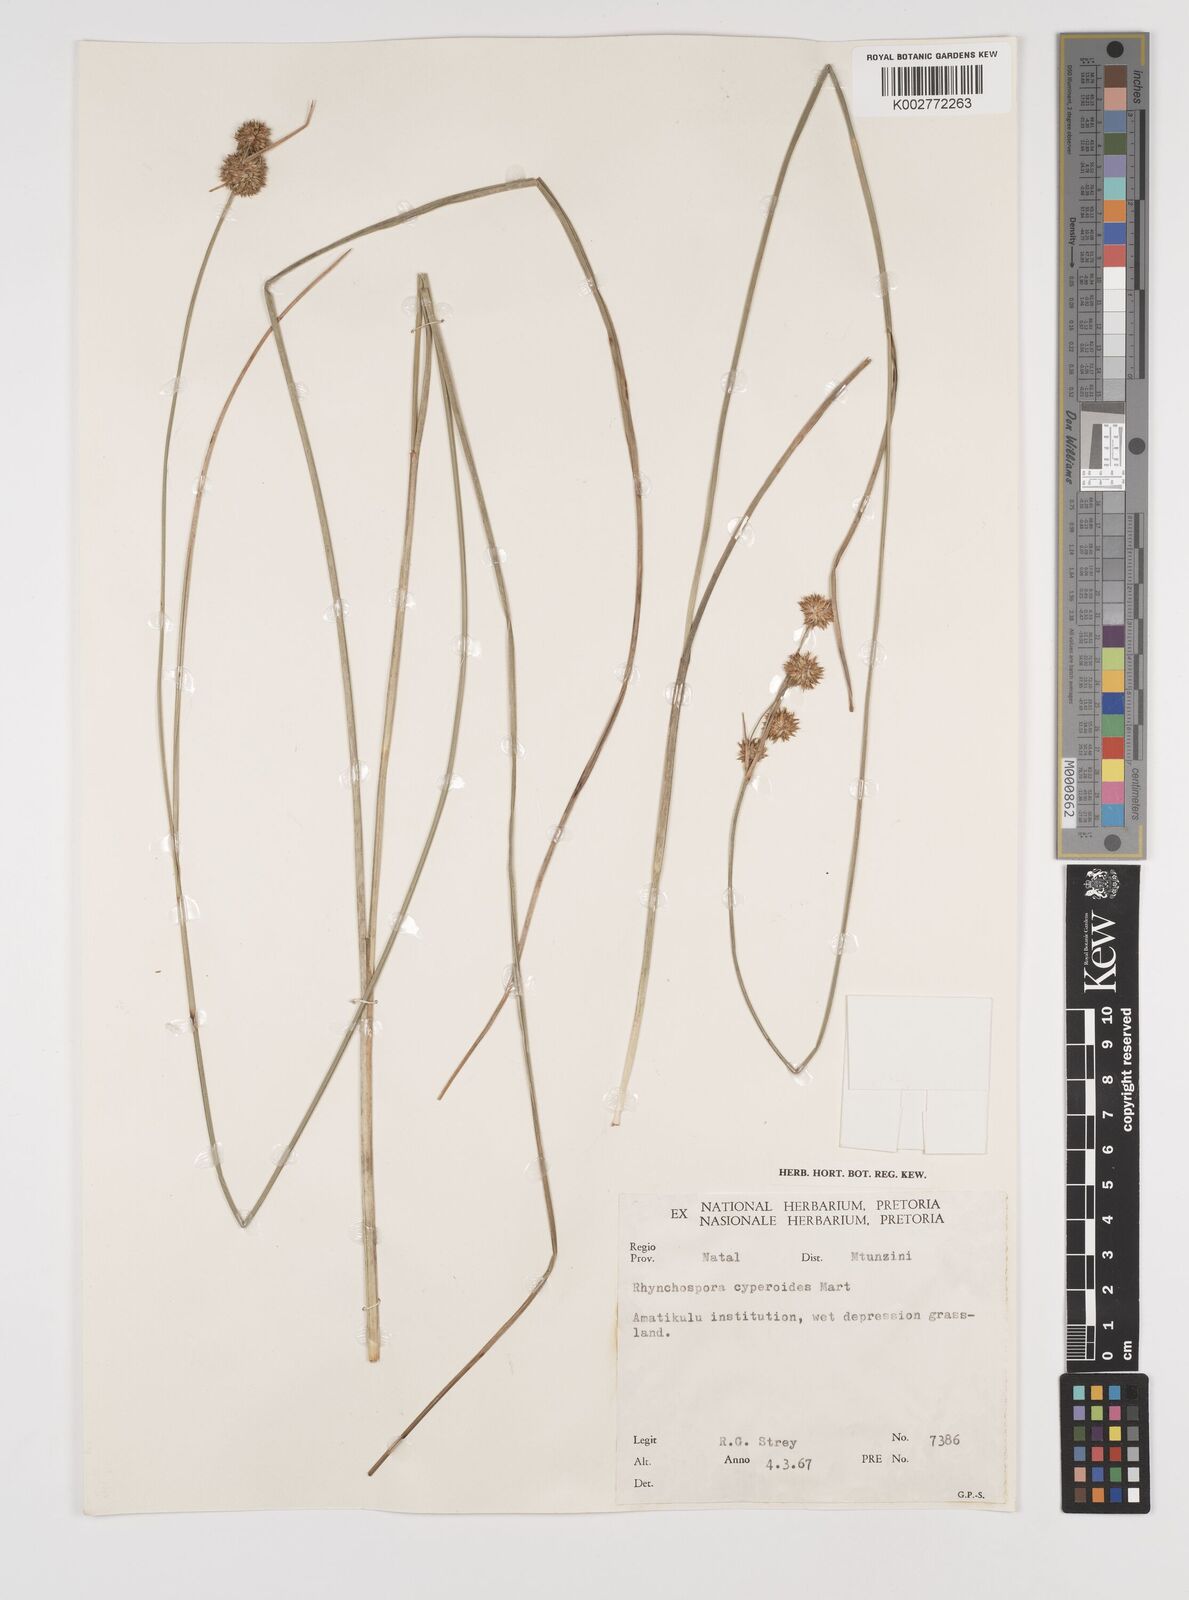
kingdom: Plantae
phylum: Tracheophyta
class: Liliopsida
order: Poales
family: Cyperaceae
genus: Rhynchospora
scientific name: Rhynchospora holoschoenoides
